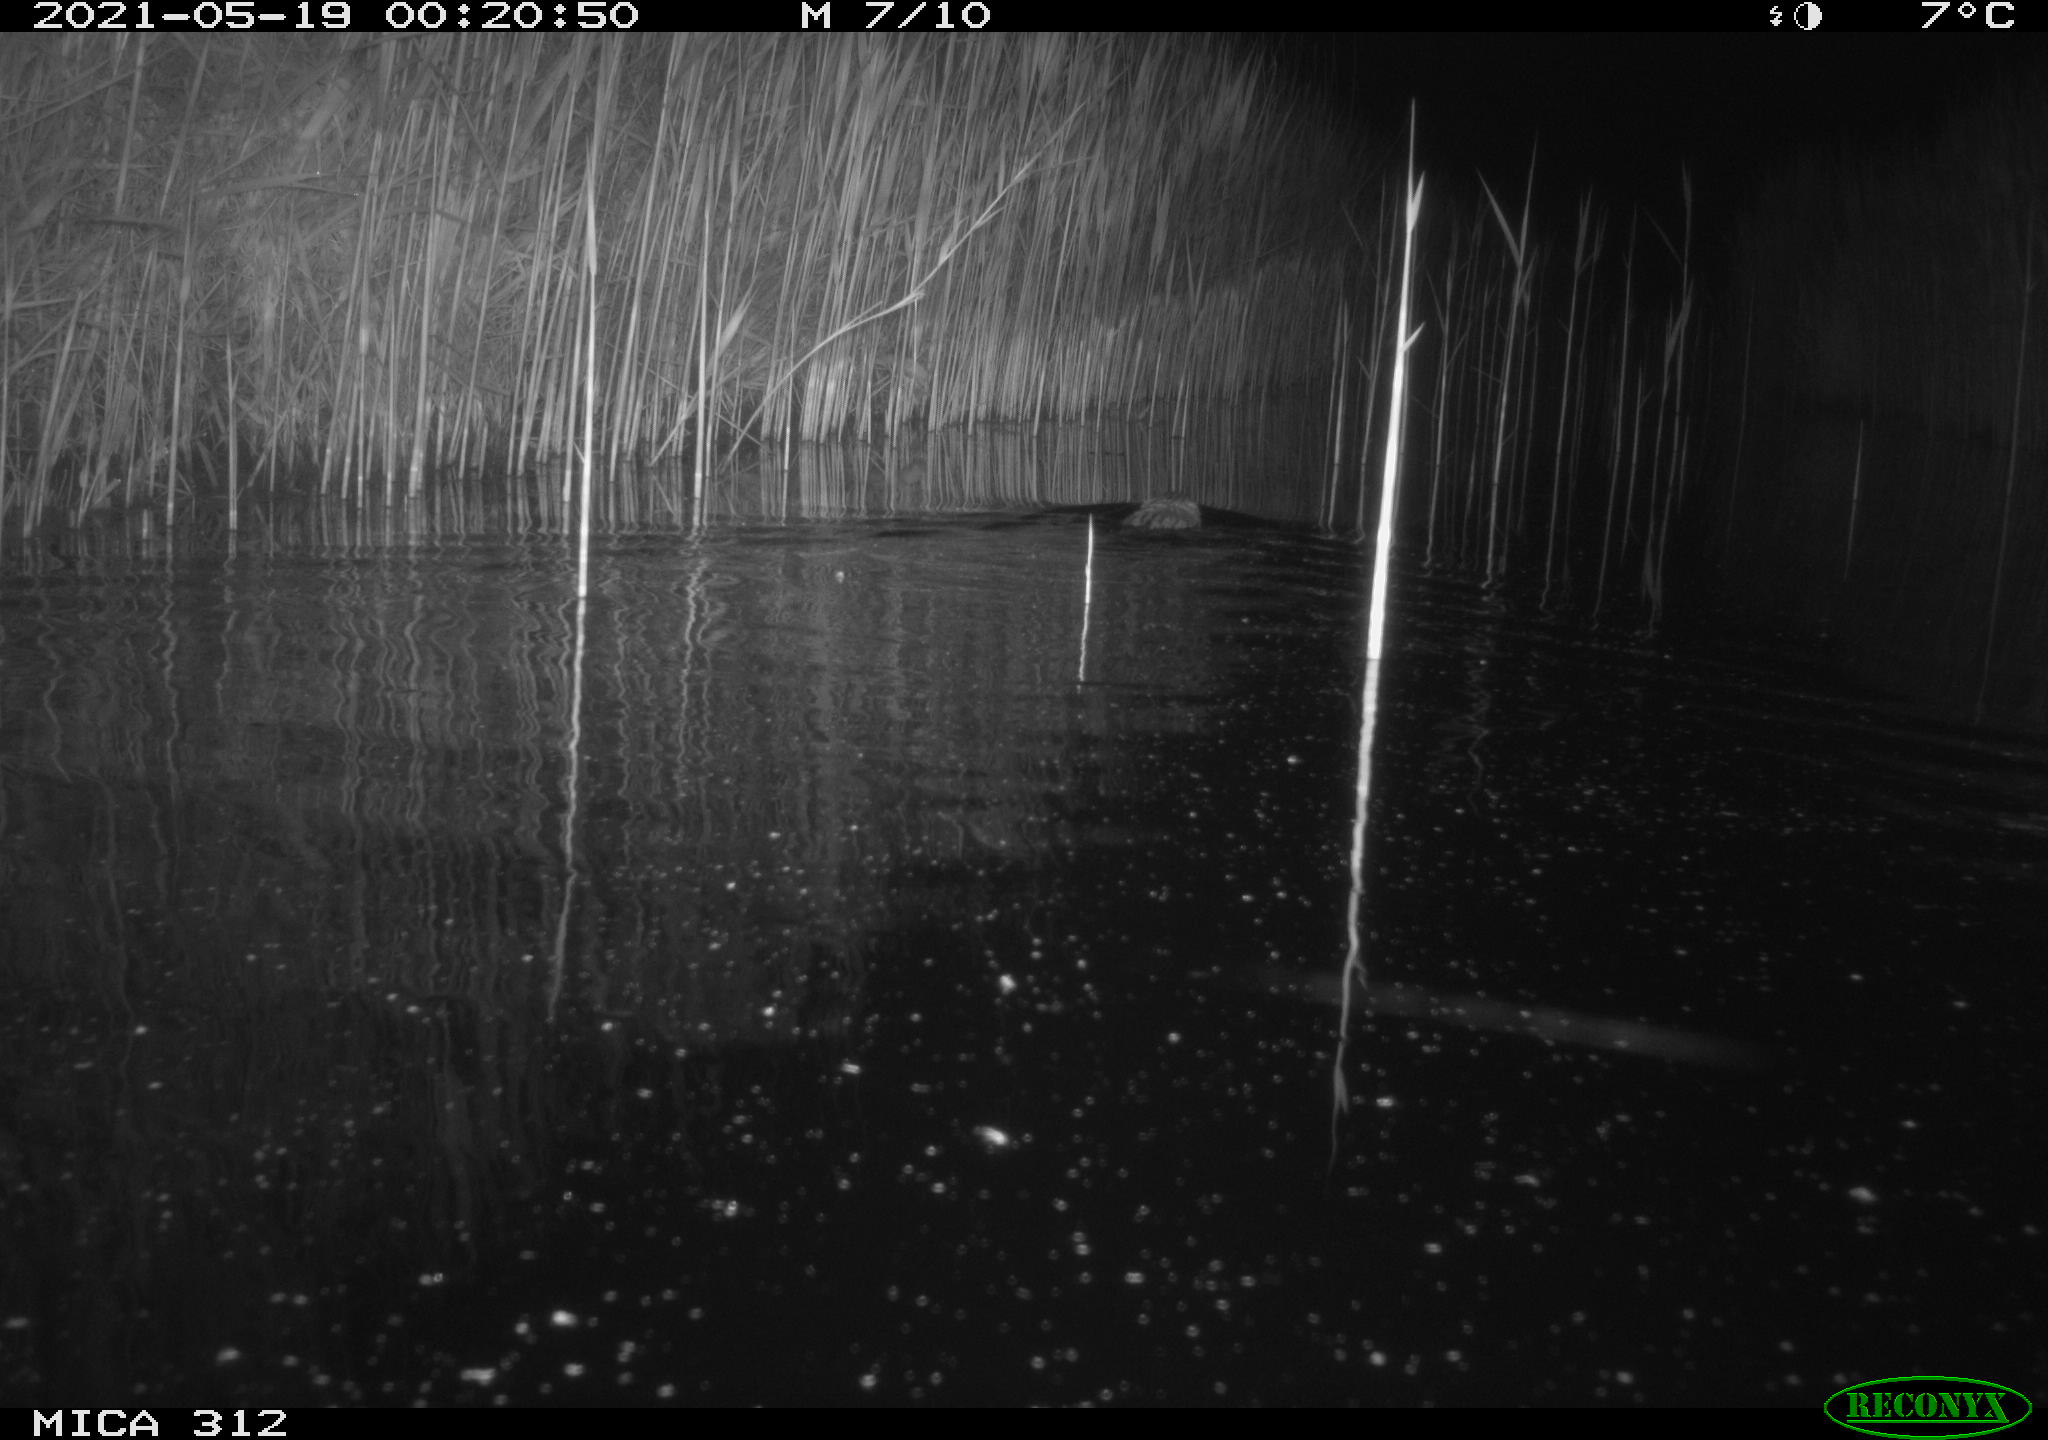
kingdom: Animalia
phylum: Chordata
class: Mammalia
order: Rodentia
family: Cricetidae
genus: Ondatra
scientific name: Ondatra zibethicus
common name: Muskrat
